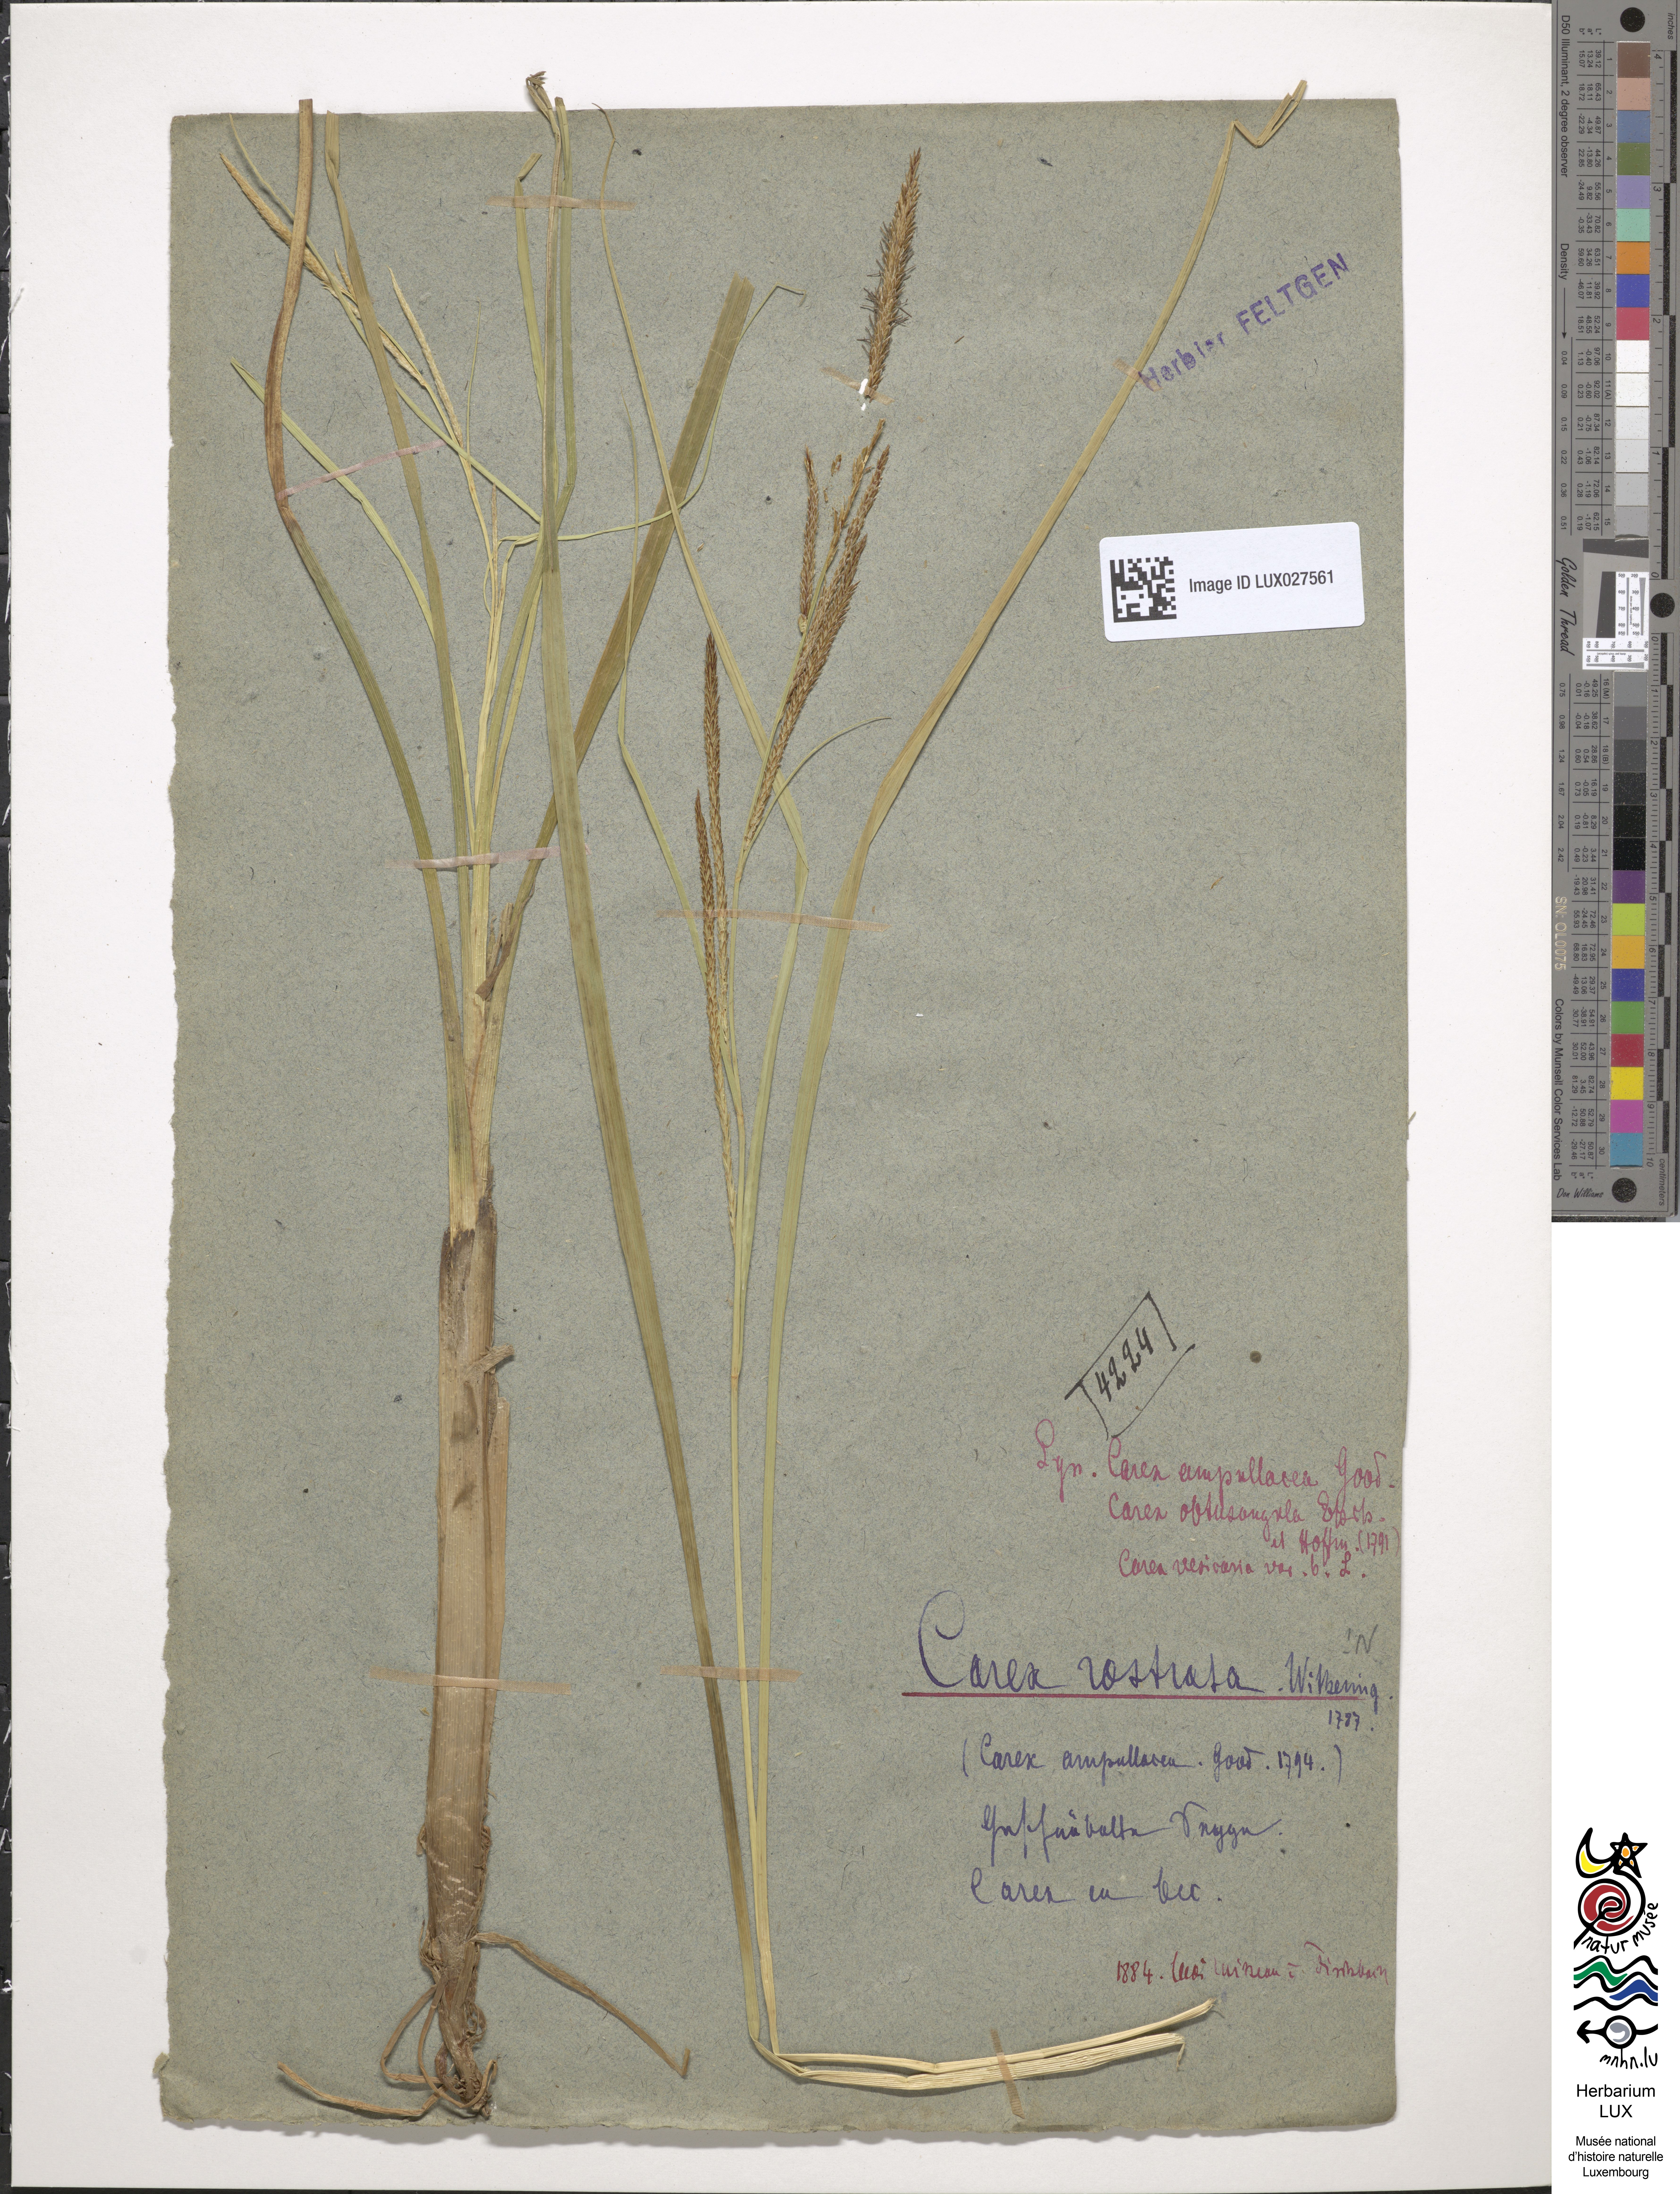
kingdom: Plantae
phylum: Tracheophyta
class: Liliopsida
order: Poales
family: Cyperaceae
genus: Carex
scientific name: Carex rostrata
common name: Bottle sedge
